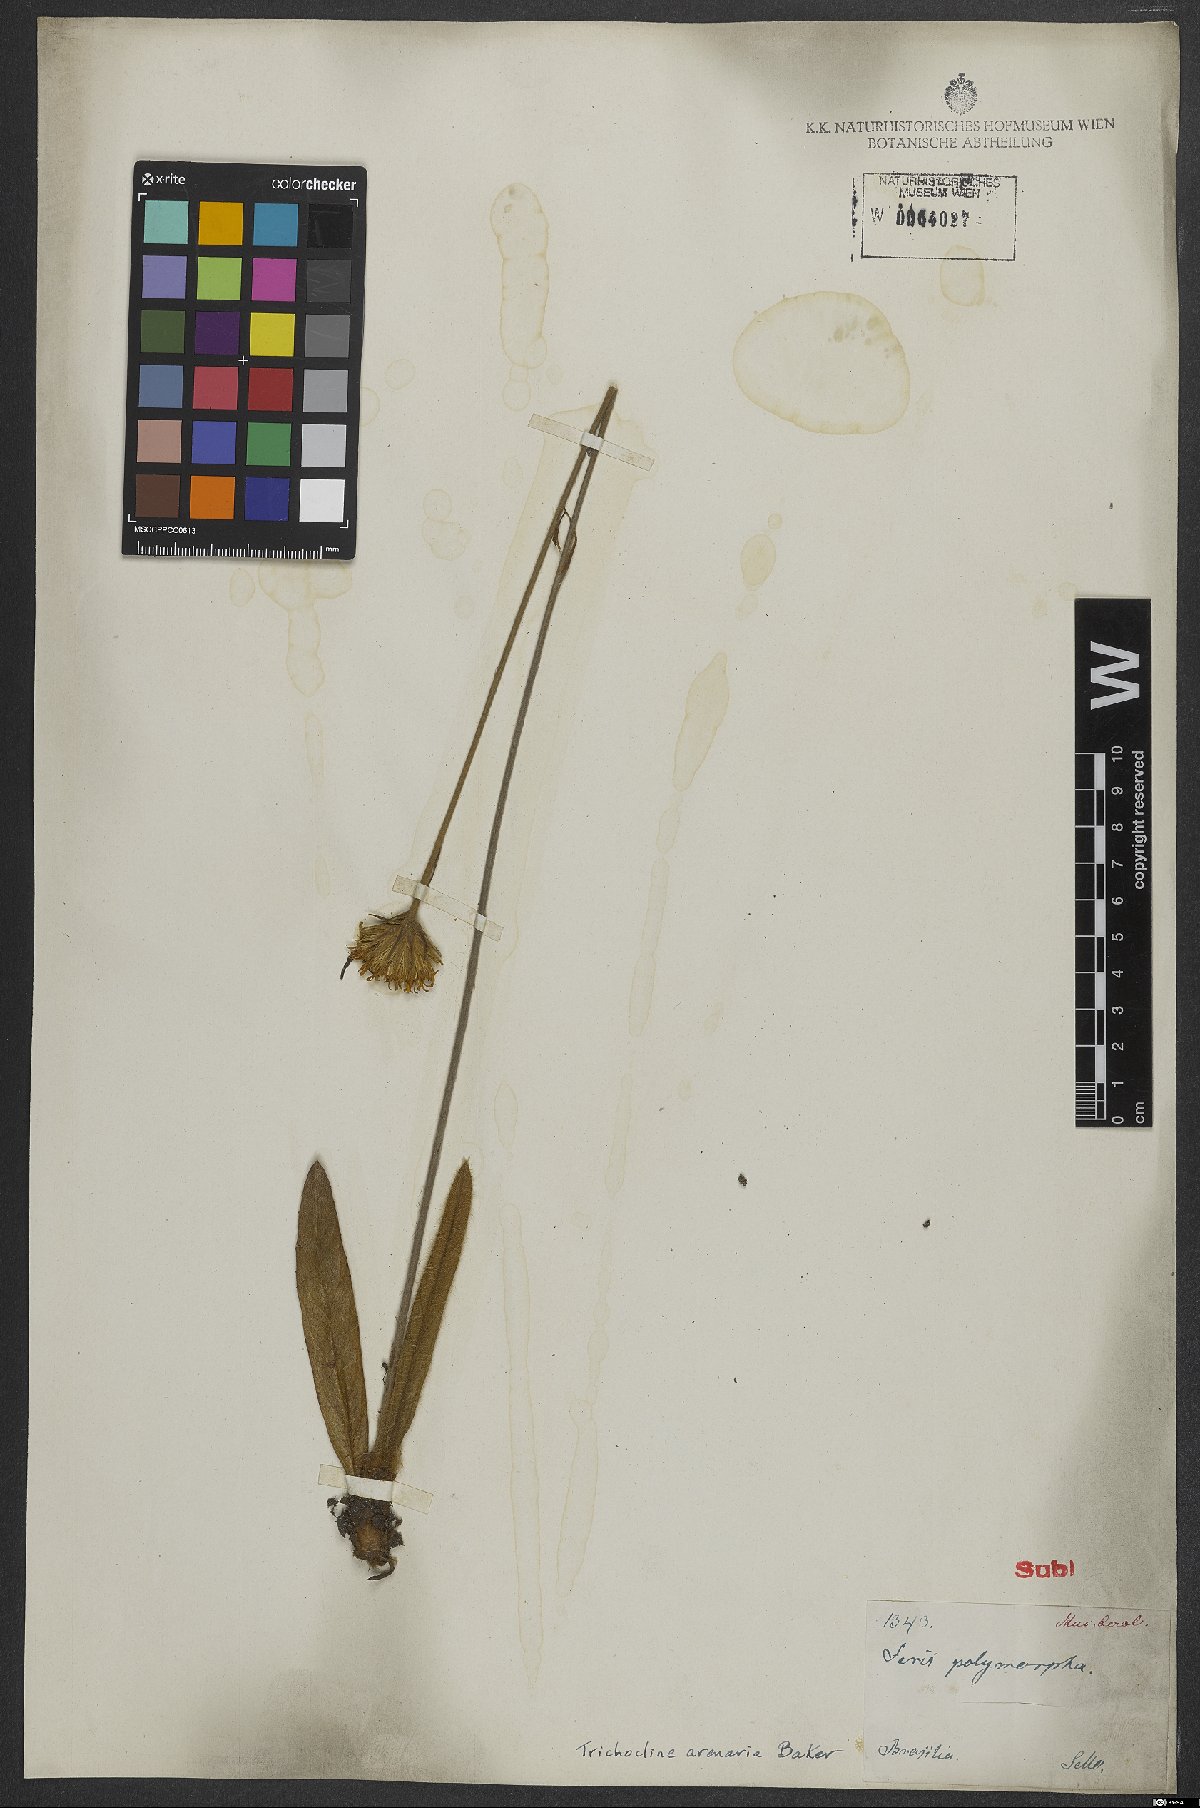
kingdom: Plantae
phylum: Tracheophyta
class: Magnoliopsida
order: Asterales
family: Asteraceae
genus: Richterago
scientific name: Richterago arenaria
